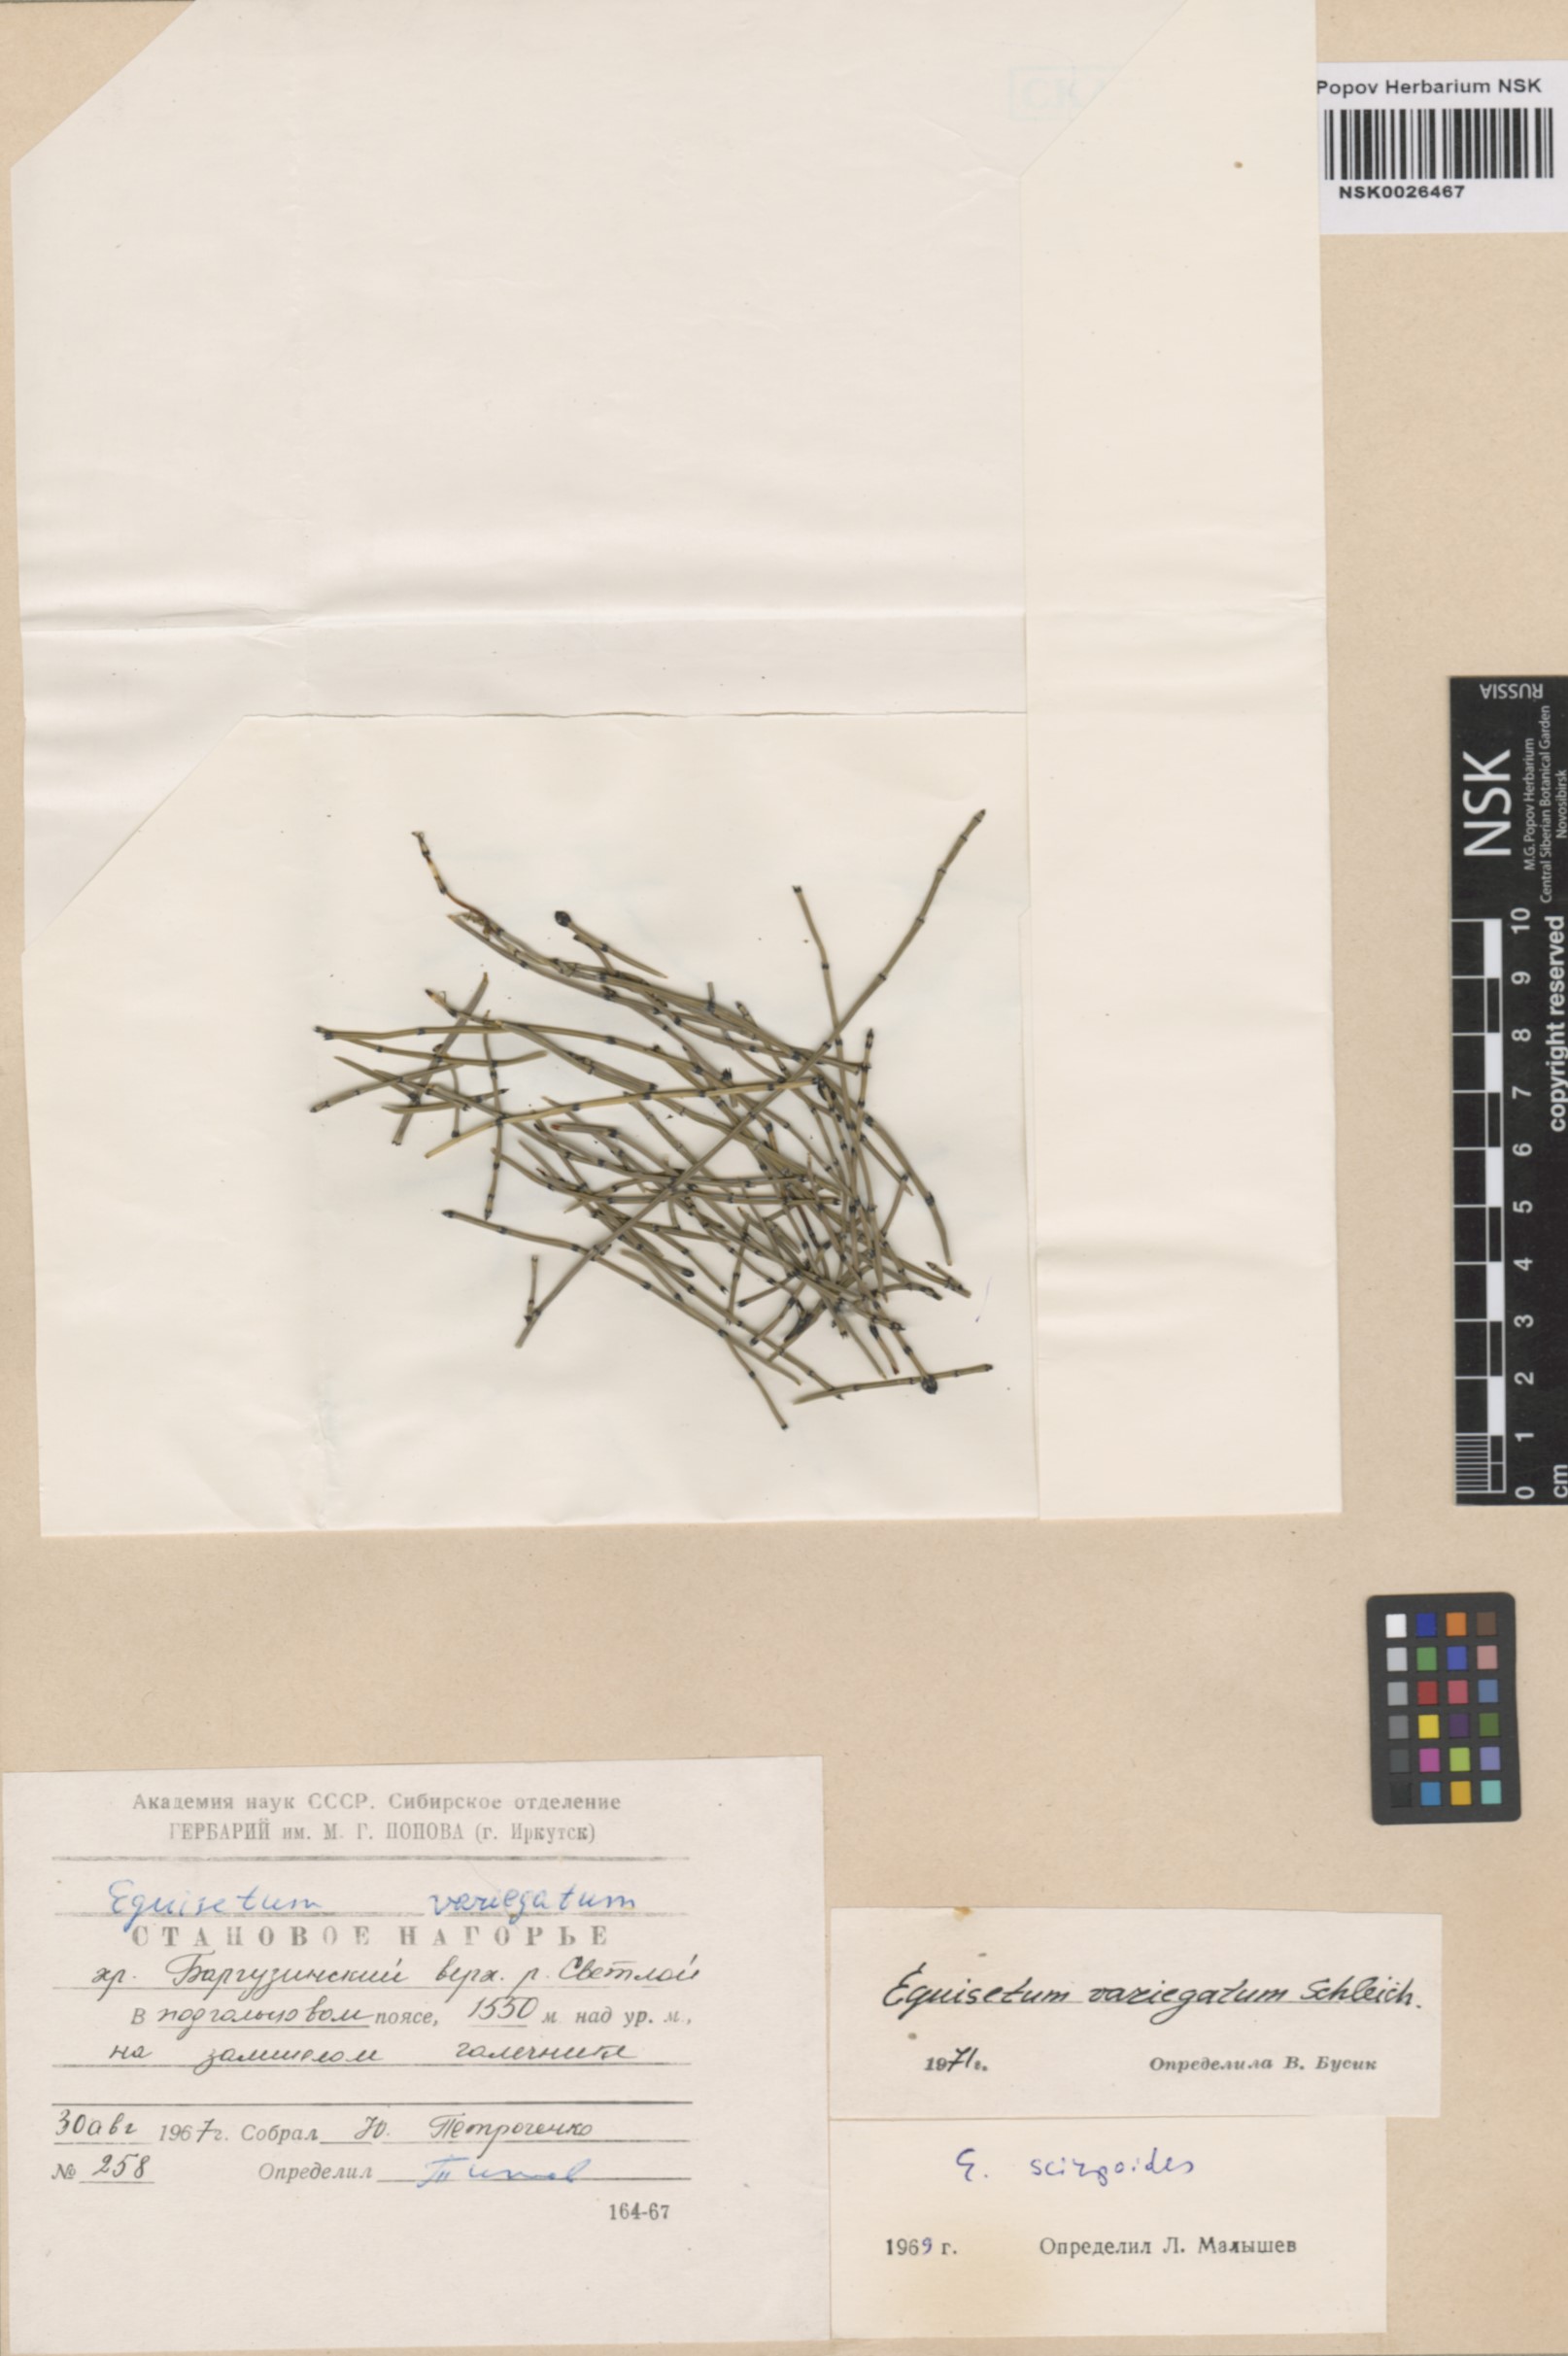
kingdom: Plantae
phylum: Tracheophyta
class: Polypodiopsida
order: Equisetales
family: Equisetaceae
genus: Equisetum
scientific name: Equisetum variegatum
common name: Variegated horsetail
